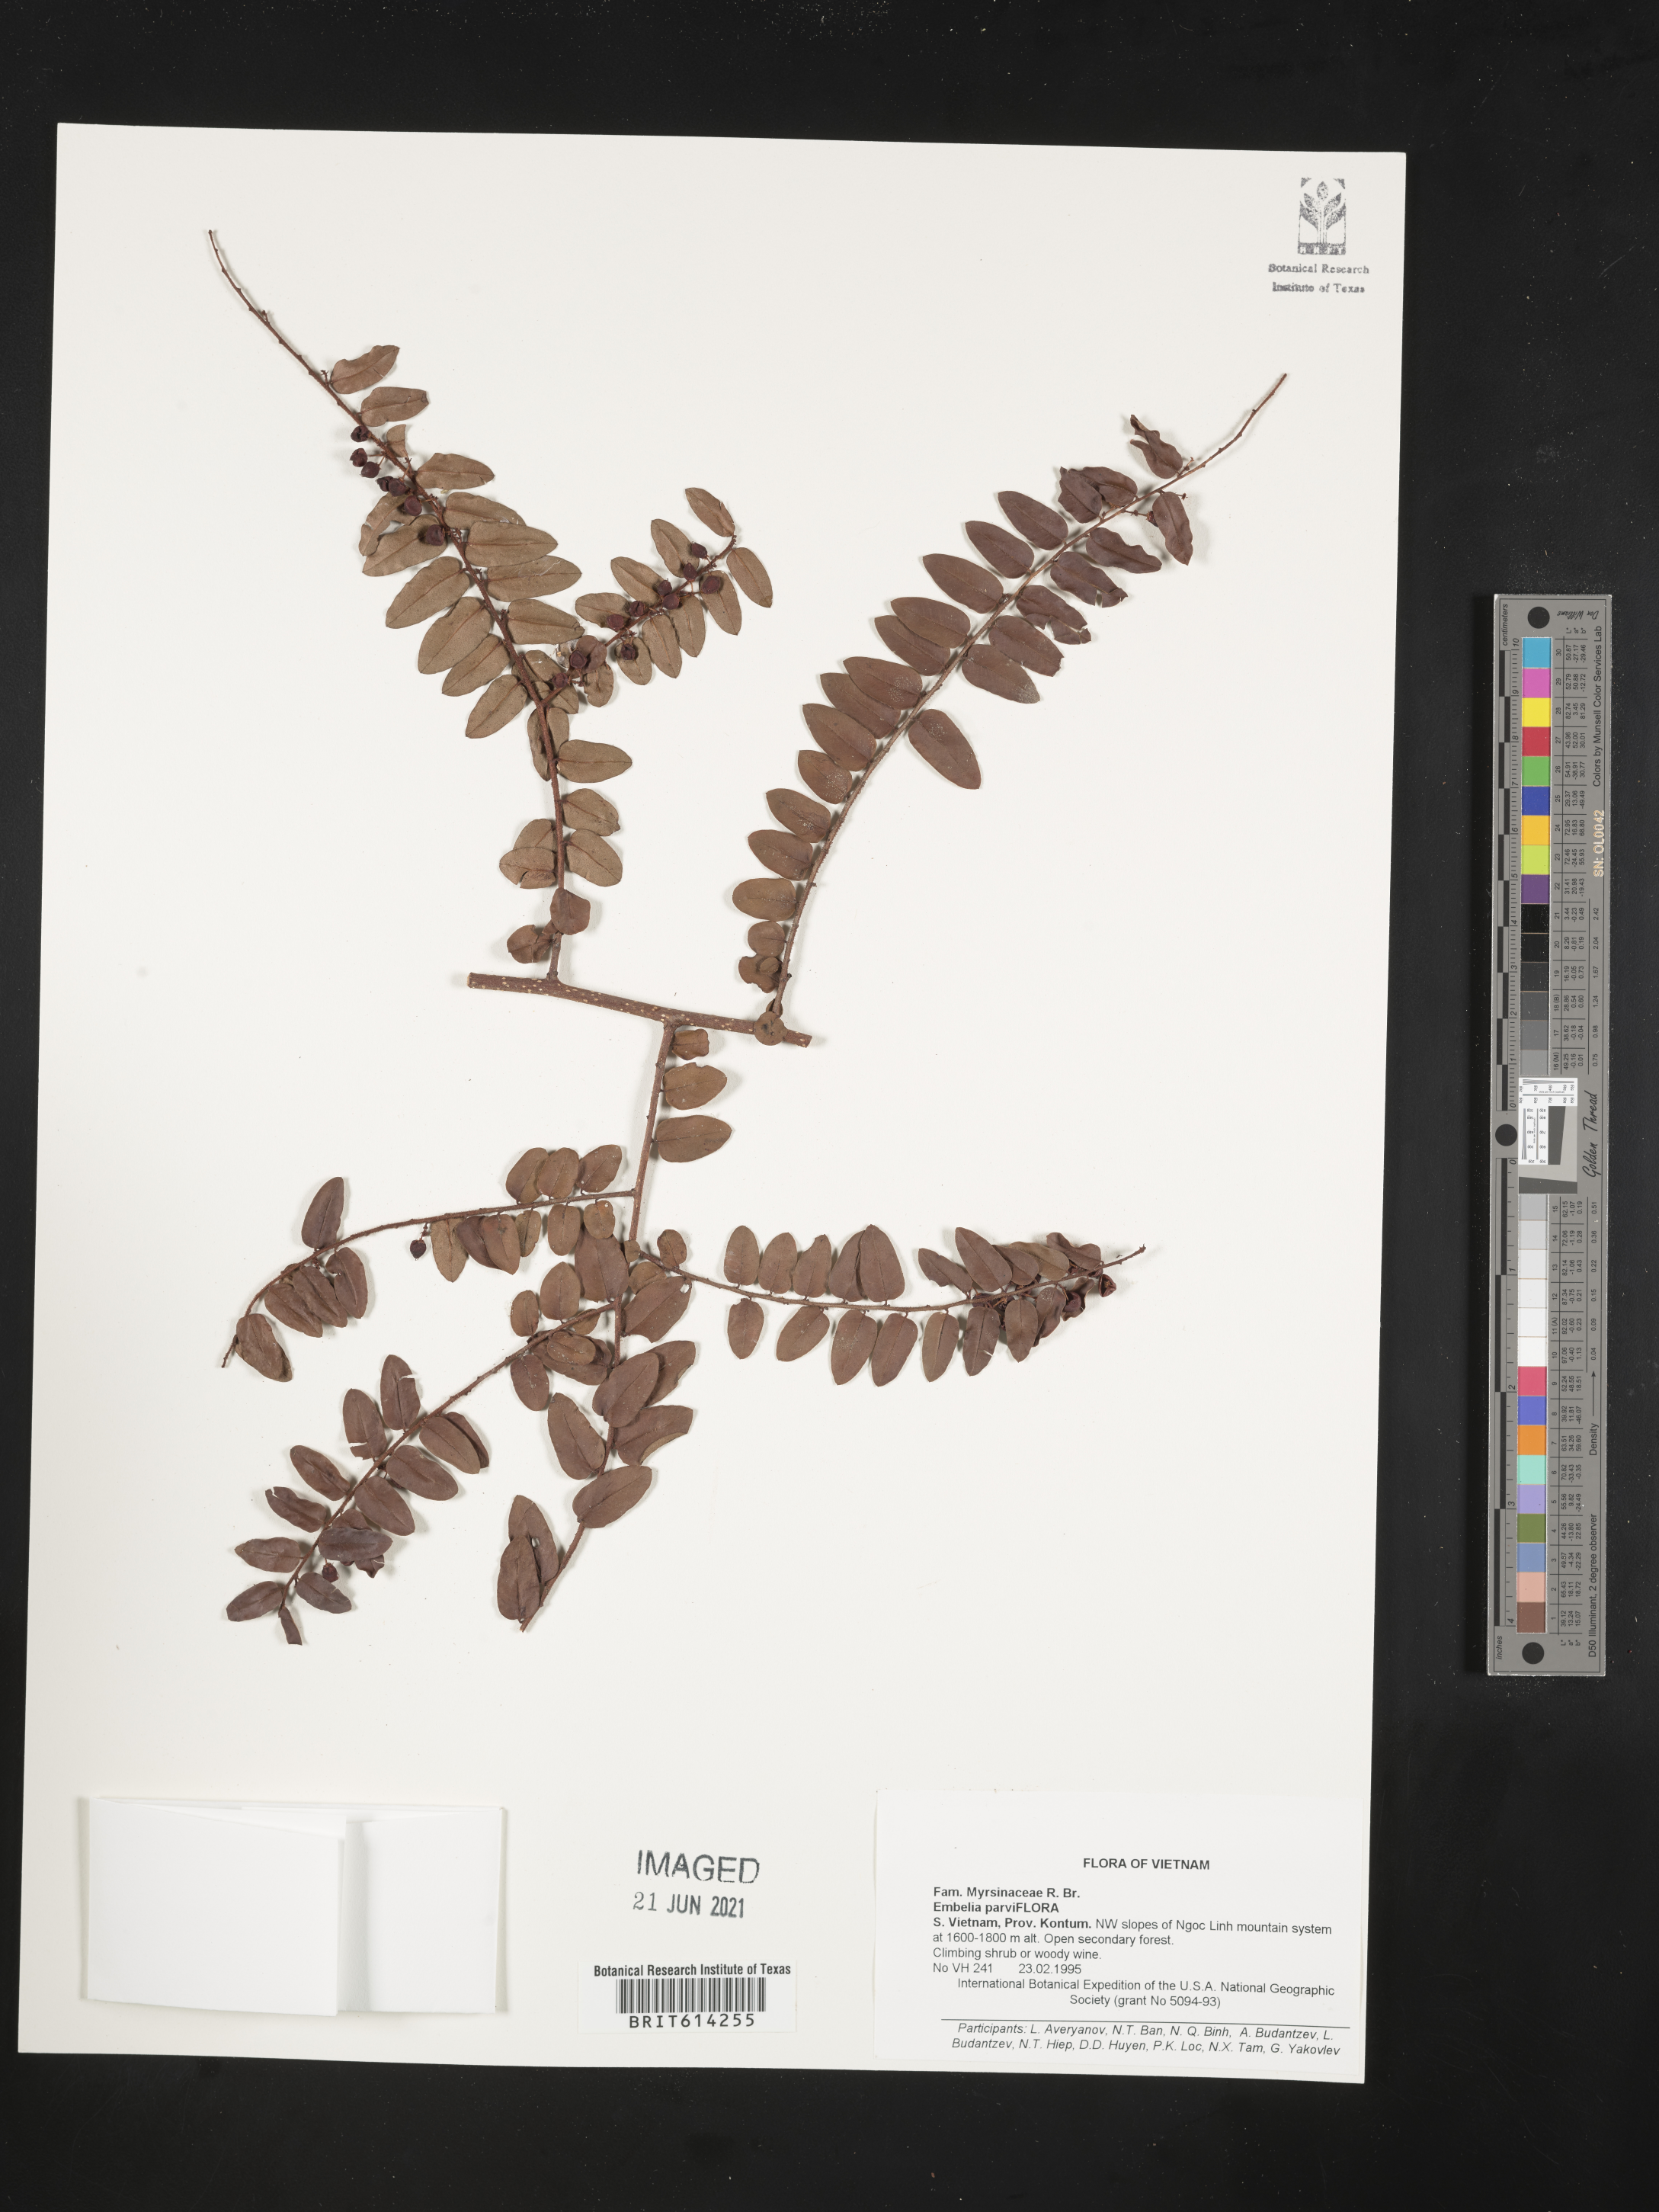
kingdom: Plantae
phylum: Tracheophyta
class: Magnoliopsida
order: Ericales
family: Primulaceae
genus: Embelia
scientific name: Embelia parviflora
